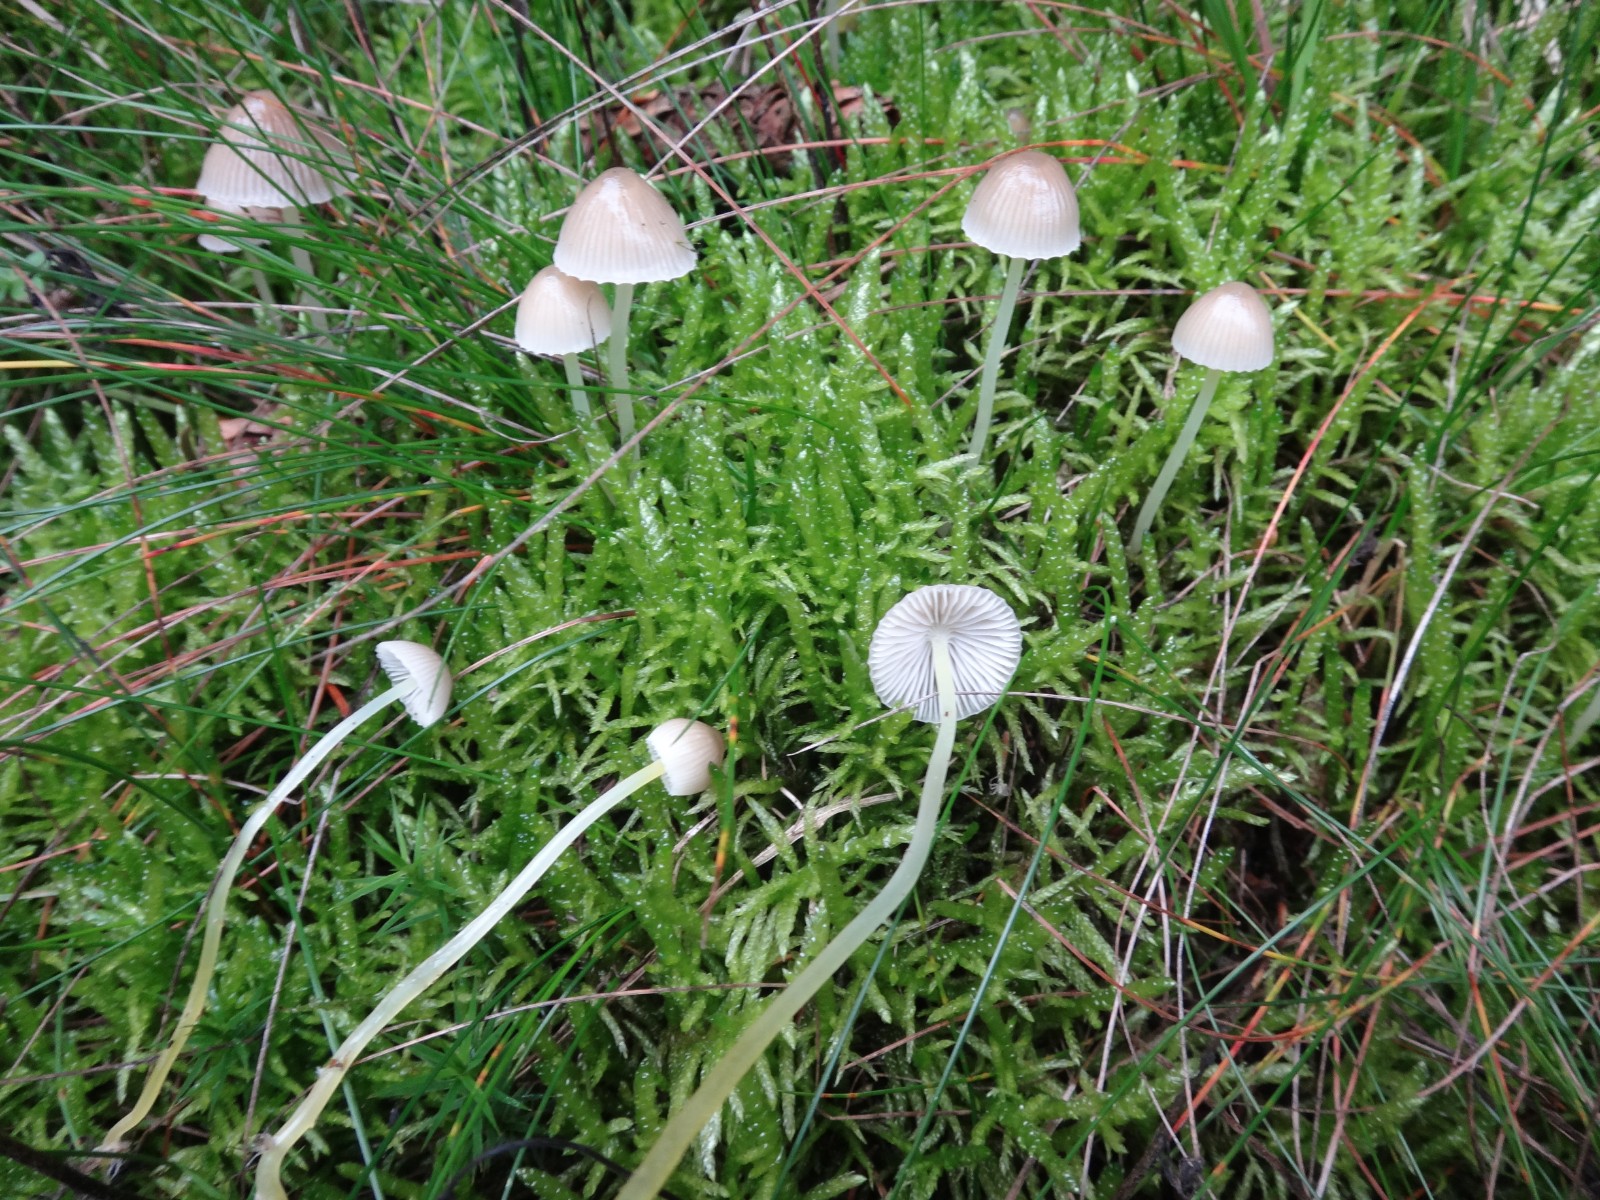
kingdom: Fungi
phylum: Basidiomycota
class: Agaricomycetes
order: Agaricales
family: Mycenaceae
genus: Mycena
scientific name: Mycena epipterygia
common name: gulstokket huesvamp
